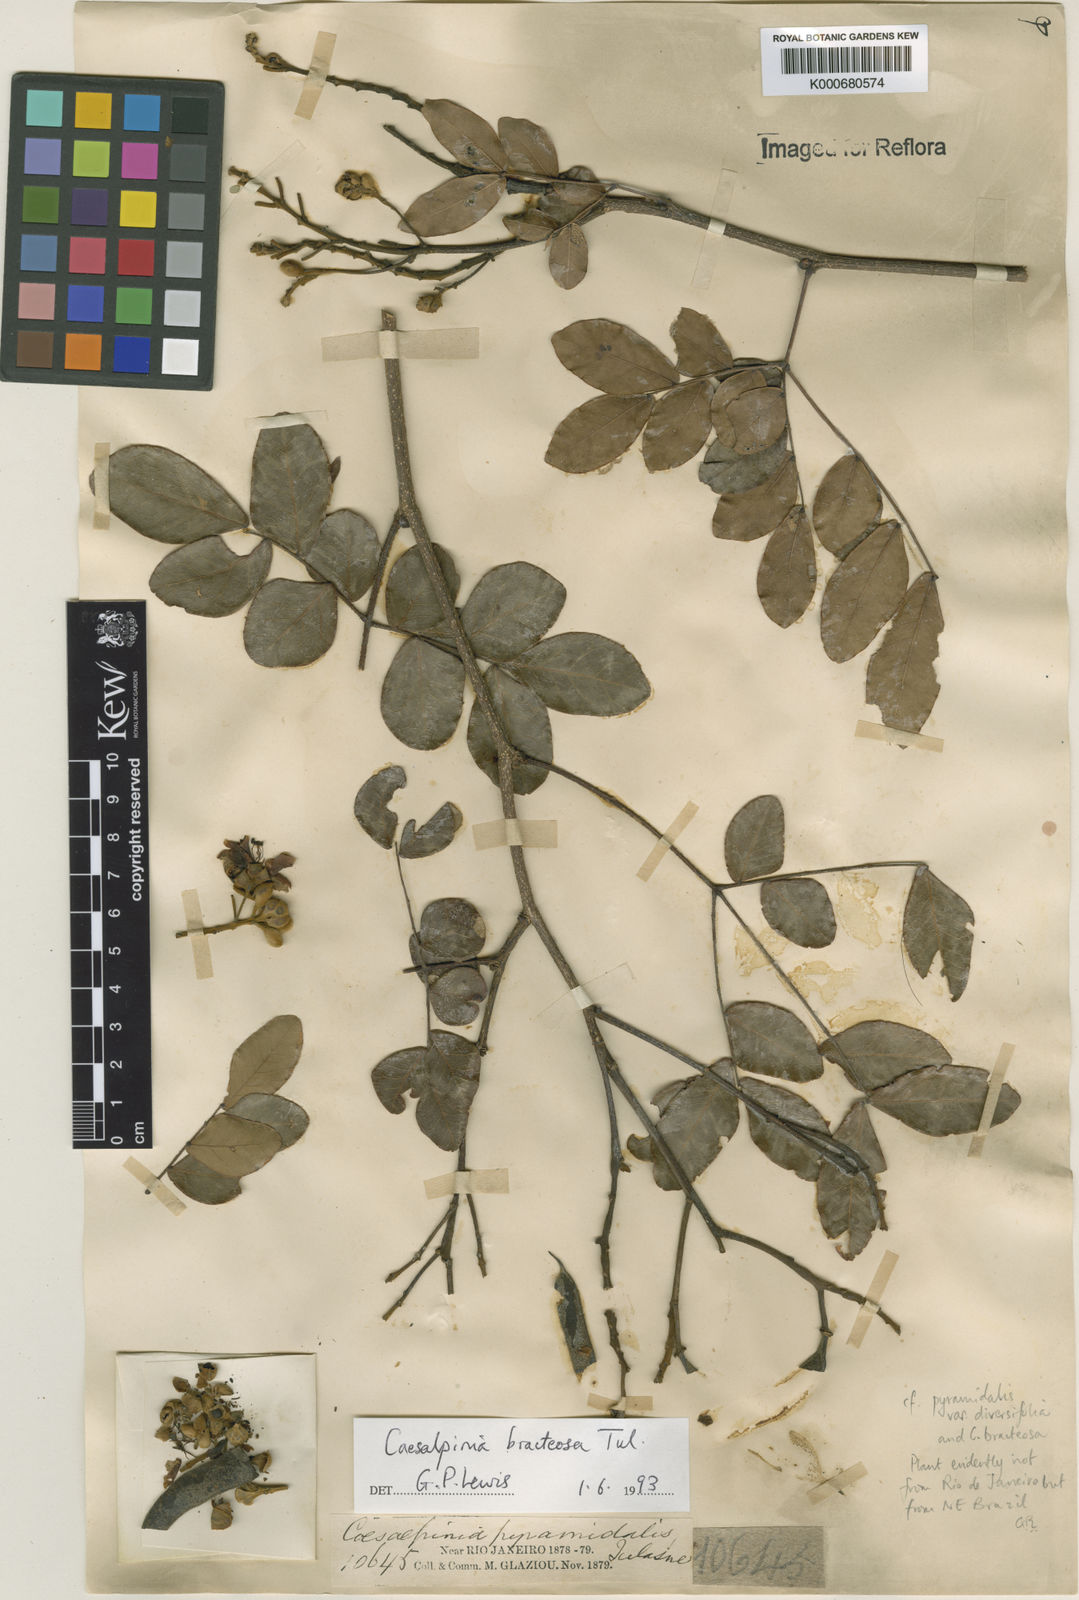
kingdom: Plantae
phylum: Tracheophyta
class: Magnoliopsida
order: Fabales
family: Fabaceae
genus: Cenostigma
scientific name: Cenostigma bracteosum
